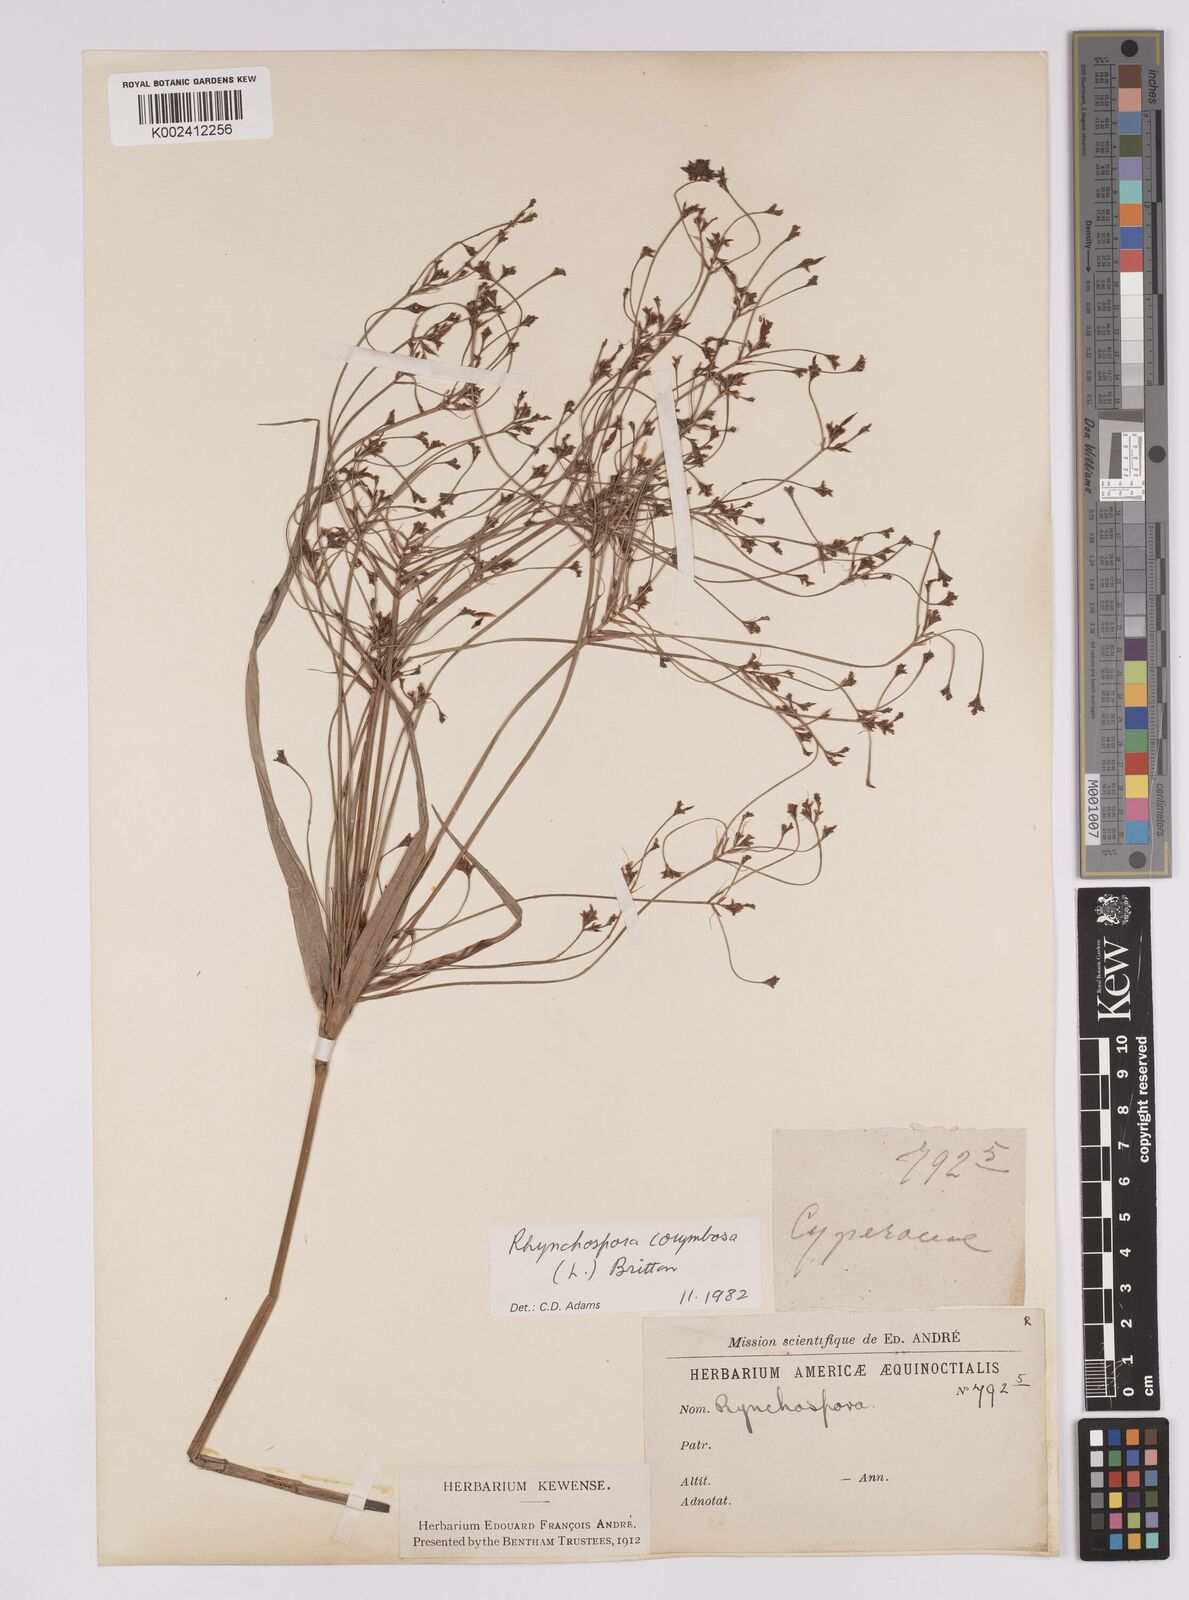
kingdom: Plantae
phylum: Tracheophyta
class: Liliopsida
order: Poales
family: Cyperaceae
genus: Rhynchospora
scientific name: Rhynchospora corymbosa
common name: Golden beak sedge
